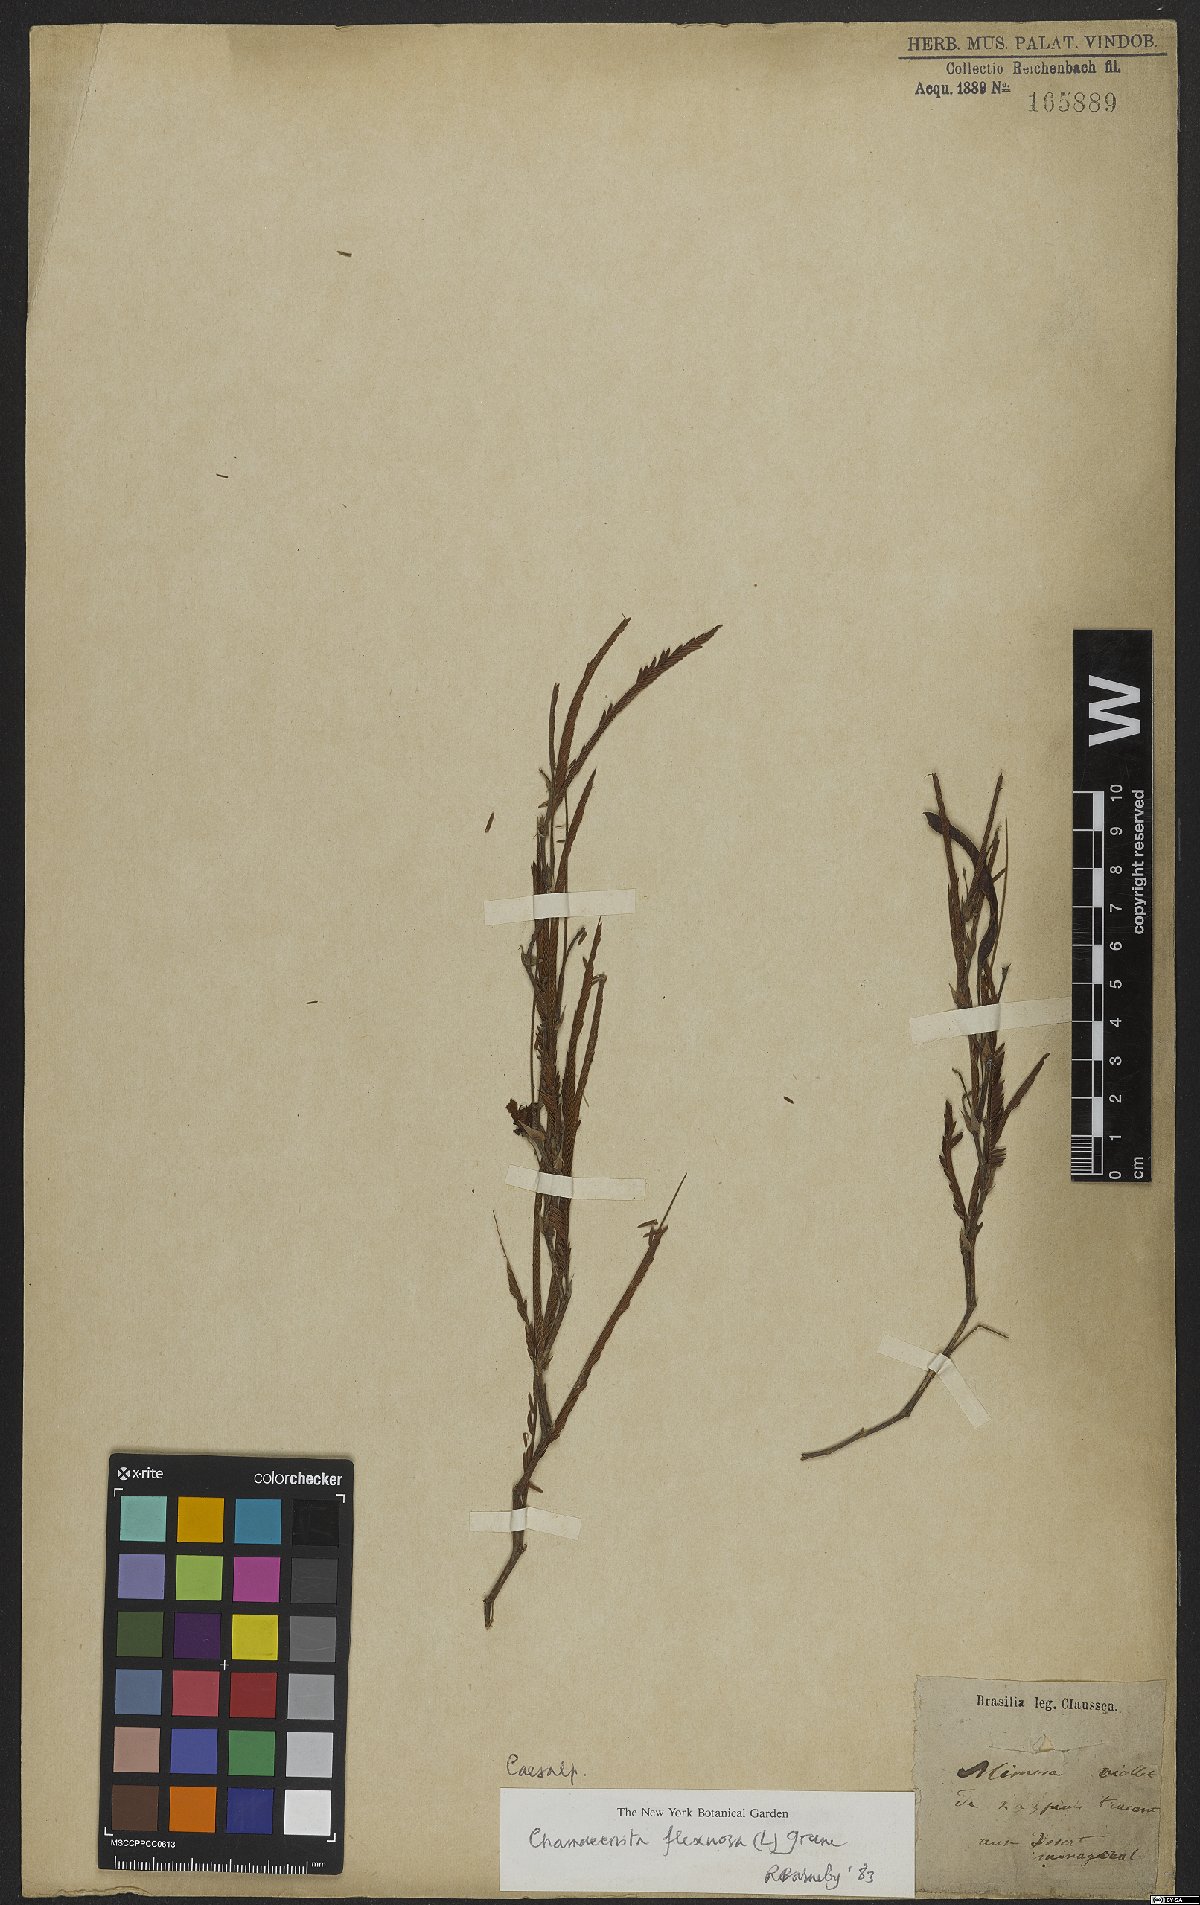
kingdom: Plantae
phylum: Tracheophyta
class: Magnoliopsida
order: Fabales
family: Fabaceae
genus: Chamaecrista
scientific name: Chamaecrista flexuosa
